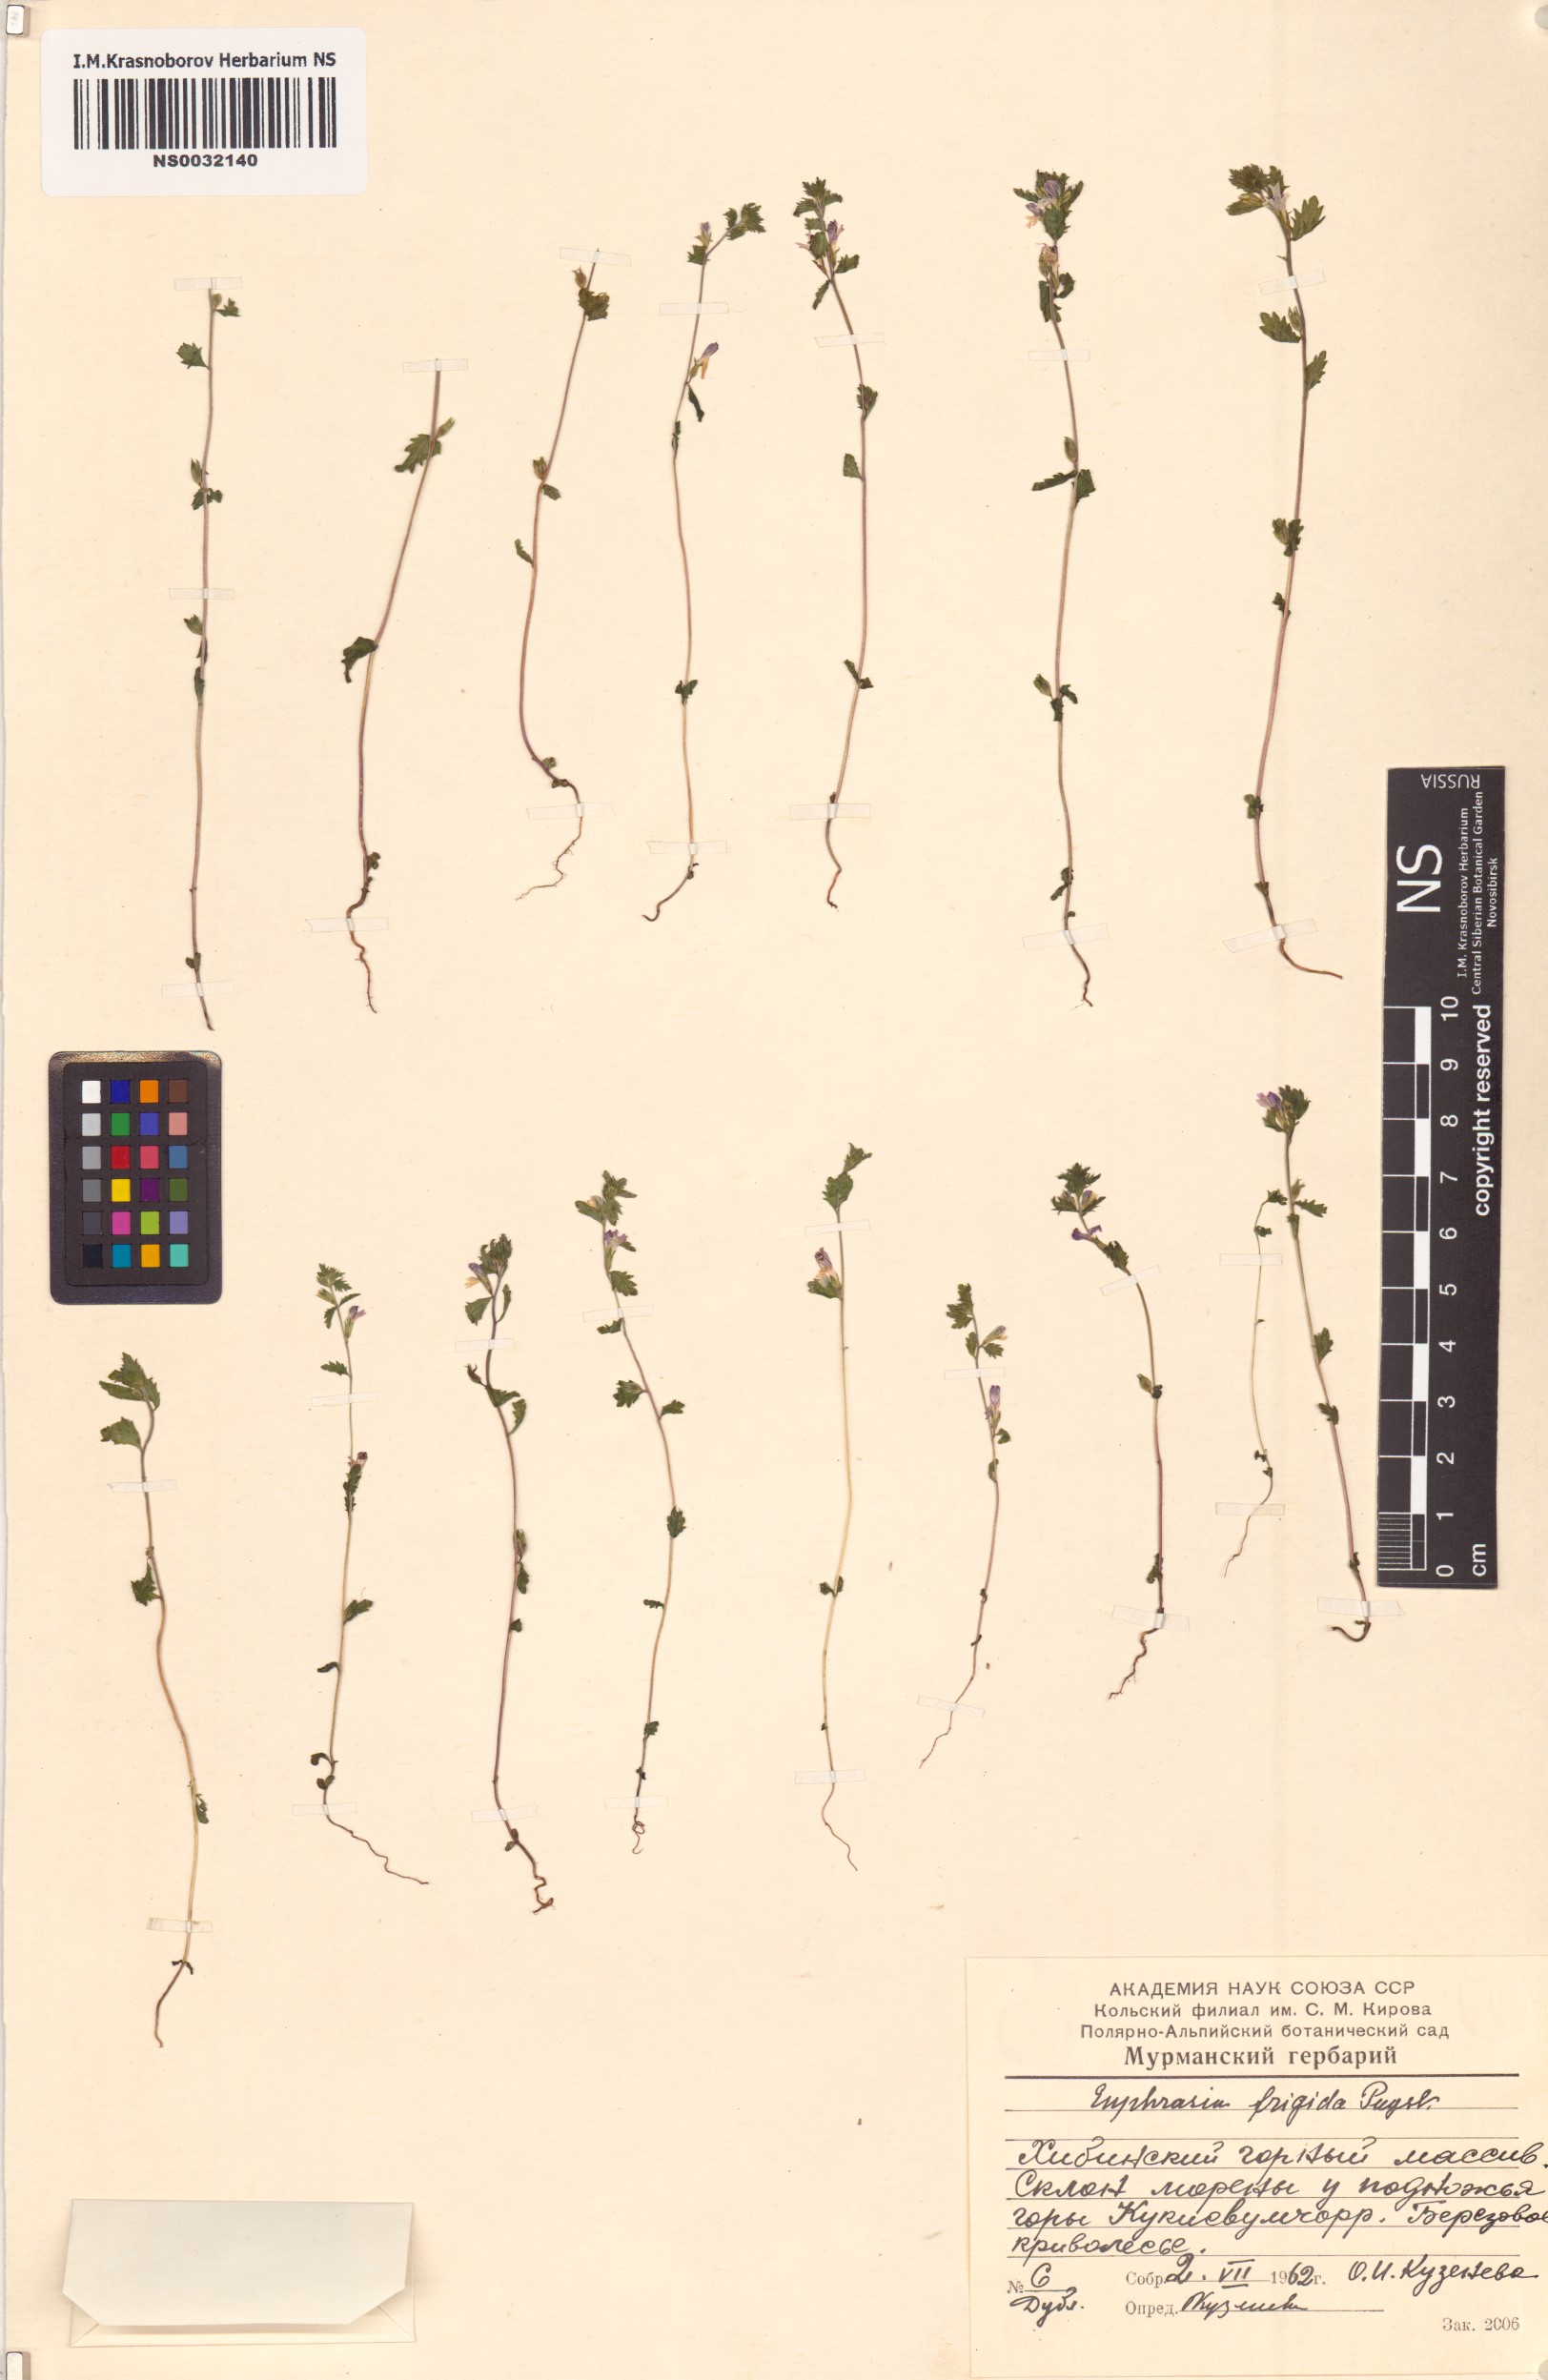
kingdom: Plantae
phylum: Tracheophyta
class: Magnoliopsida
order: Lamiales
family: Orobanchaceae
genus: Euphrasia
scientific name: Euphrasia frigida
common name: An eyebright
